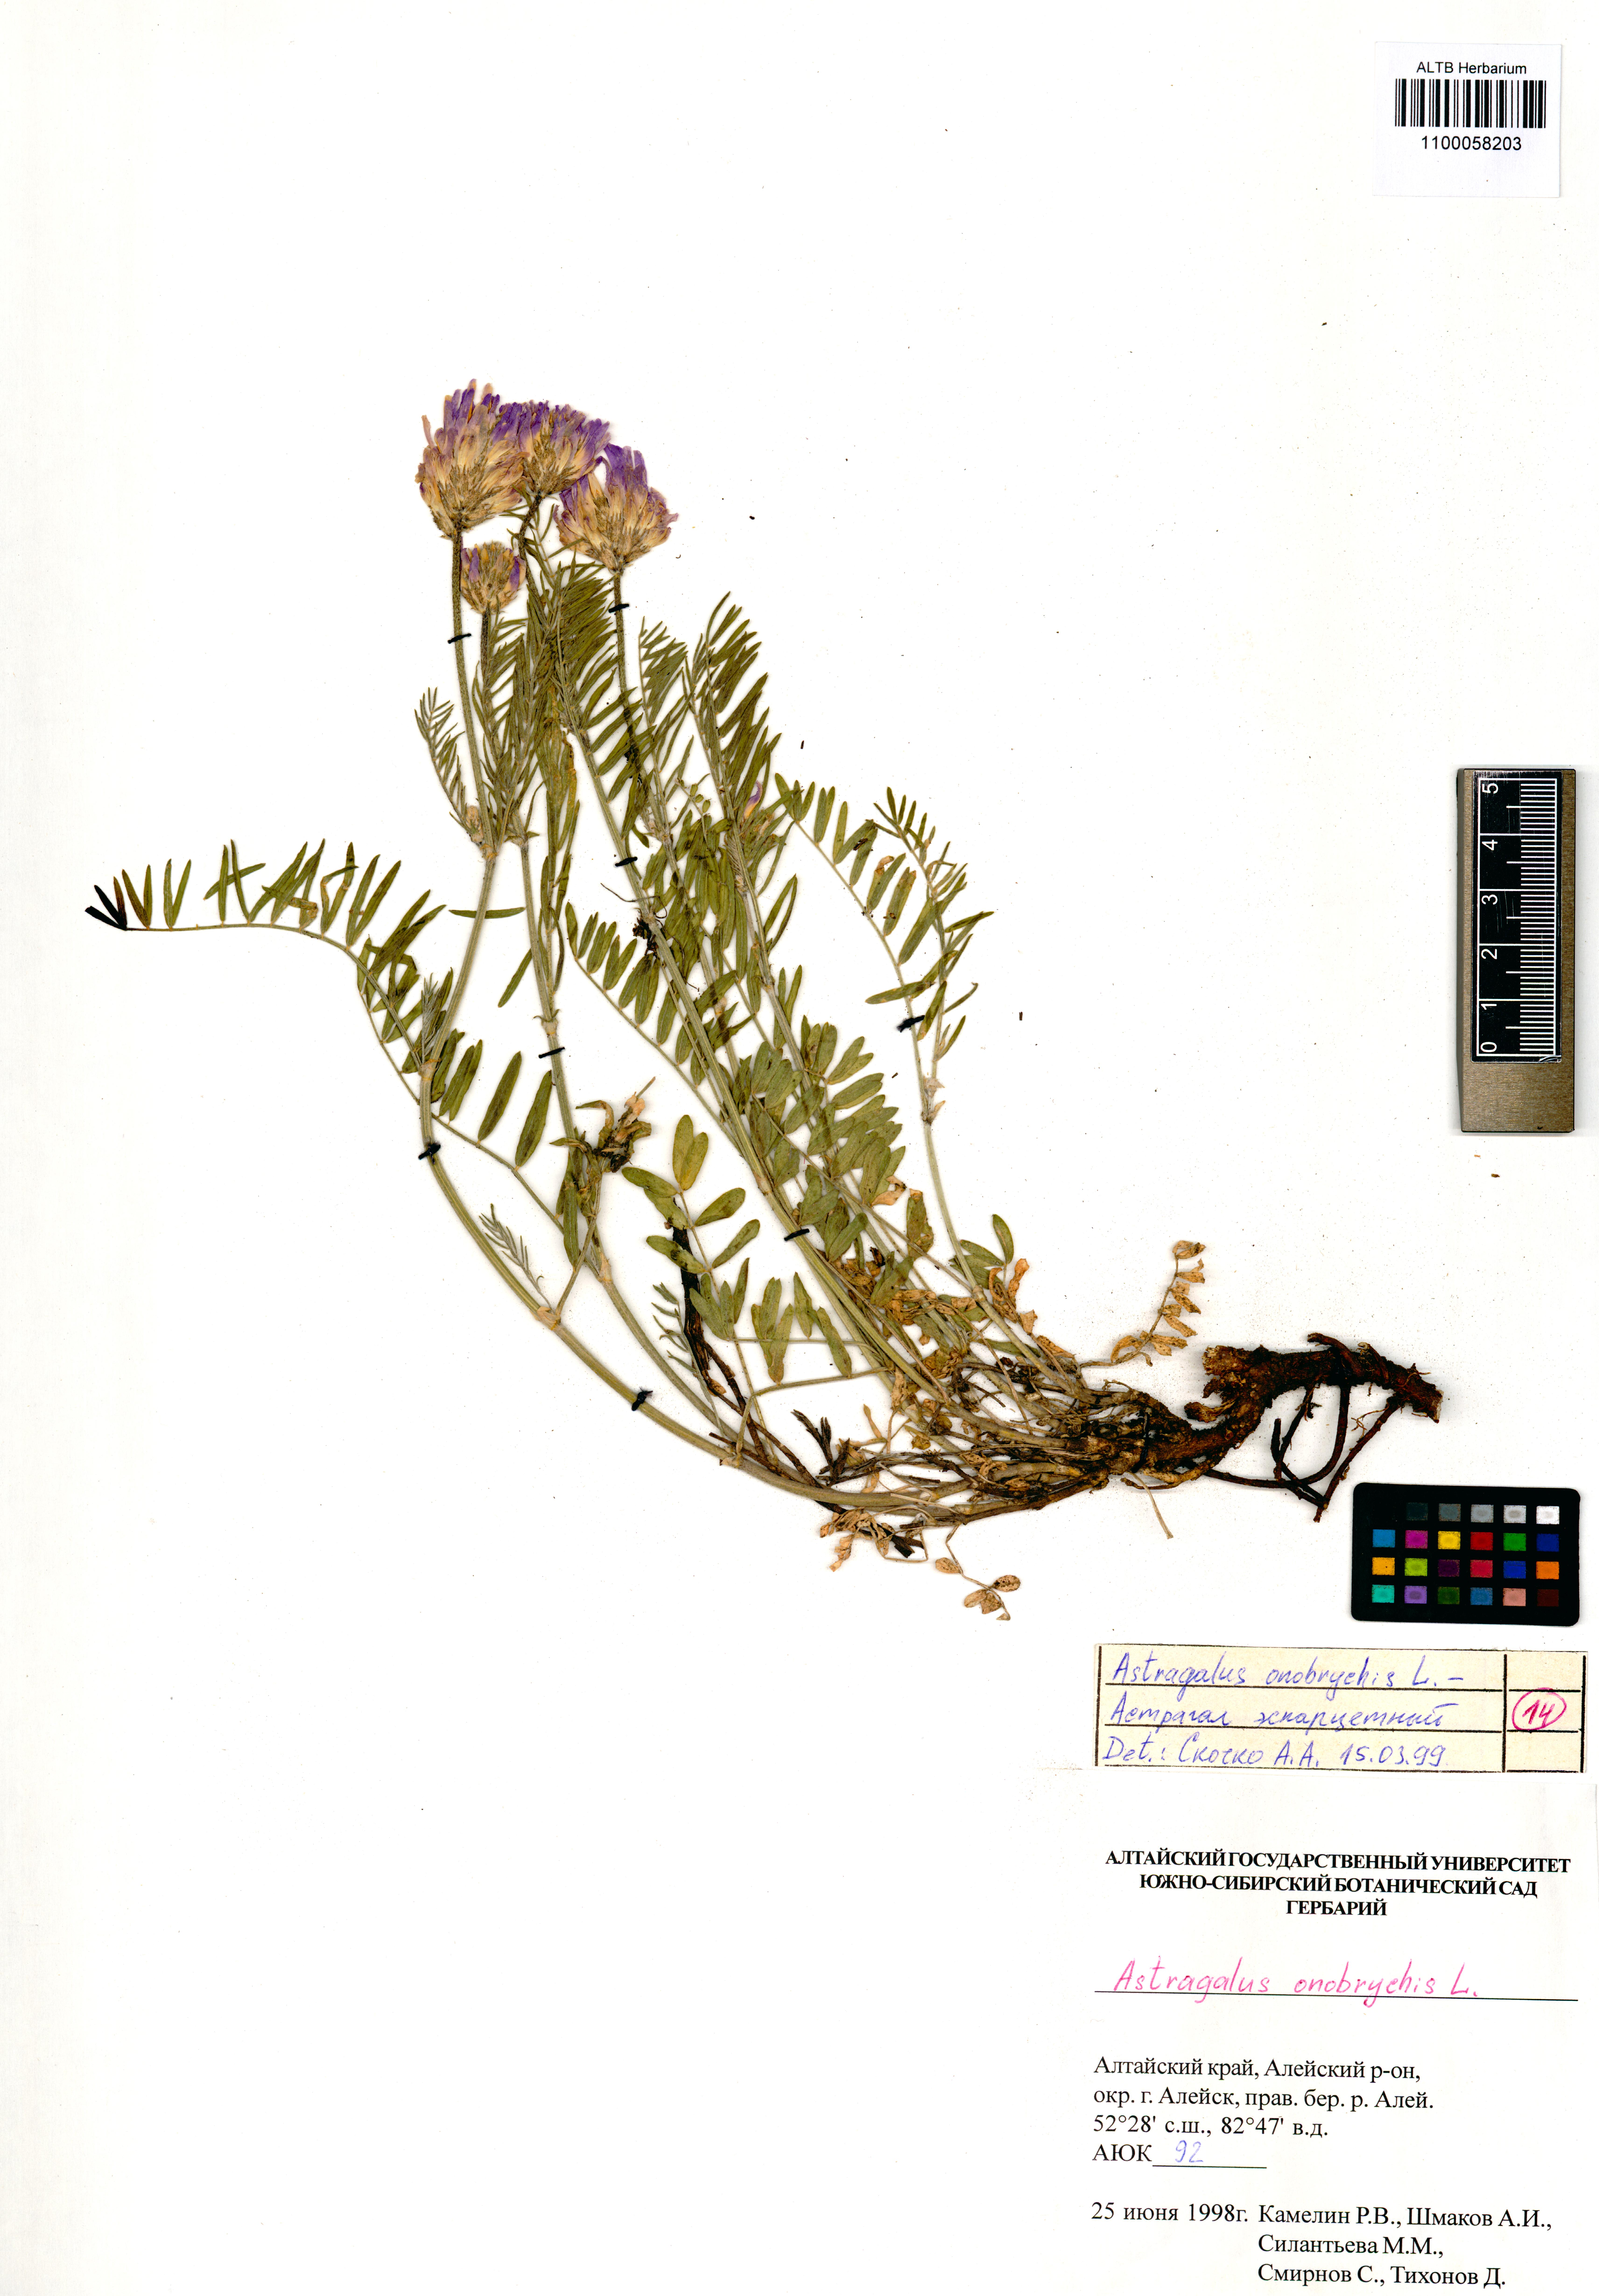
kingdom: Plantae
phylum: Tracheophyta
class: Magnoliopsida
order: Fabales
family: Fabaceae
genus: Astragalus
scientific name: Astragalus onobrychis
